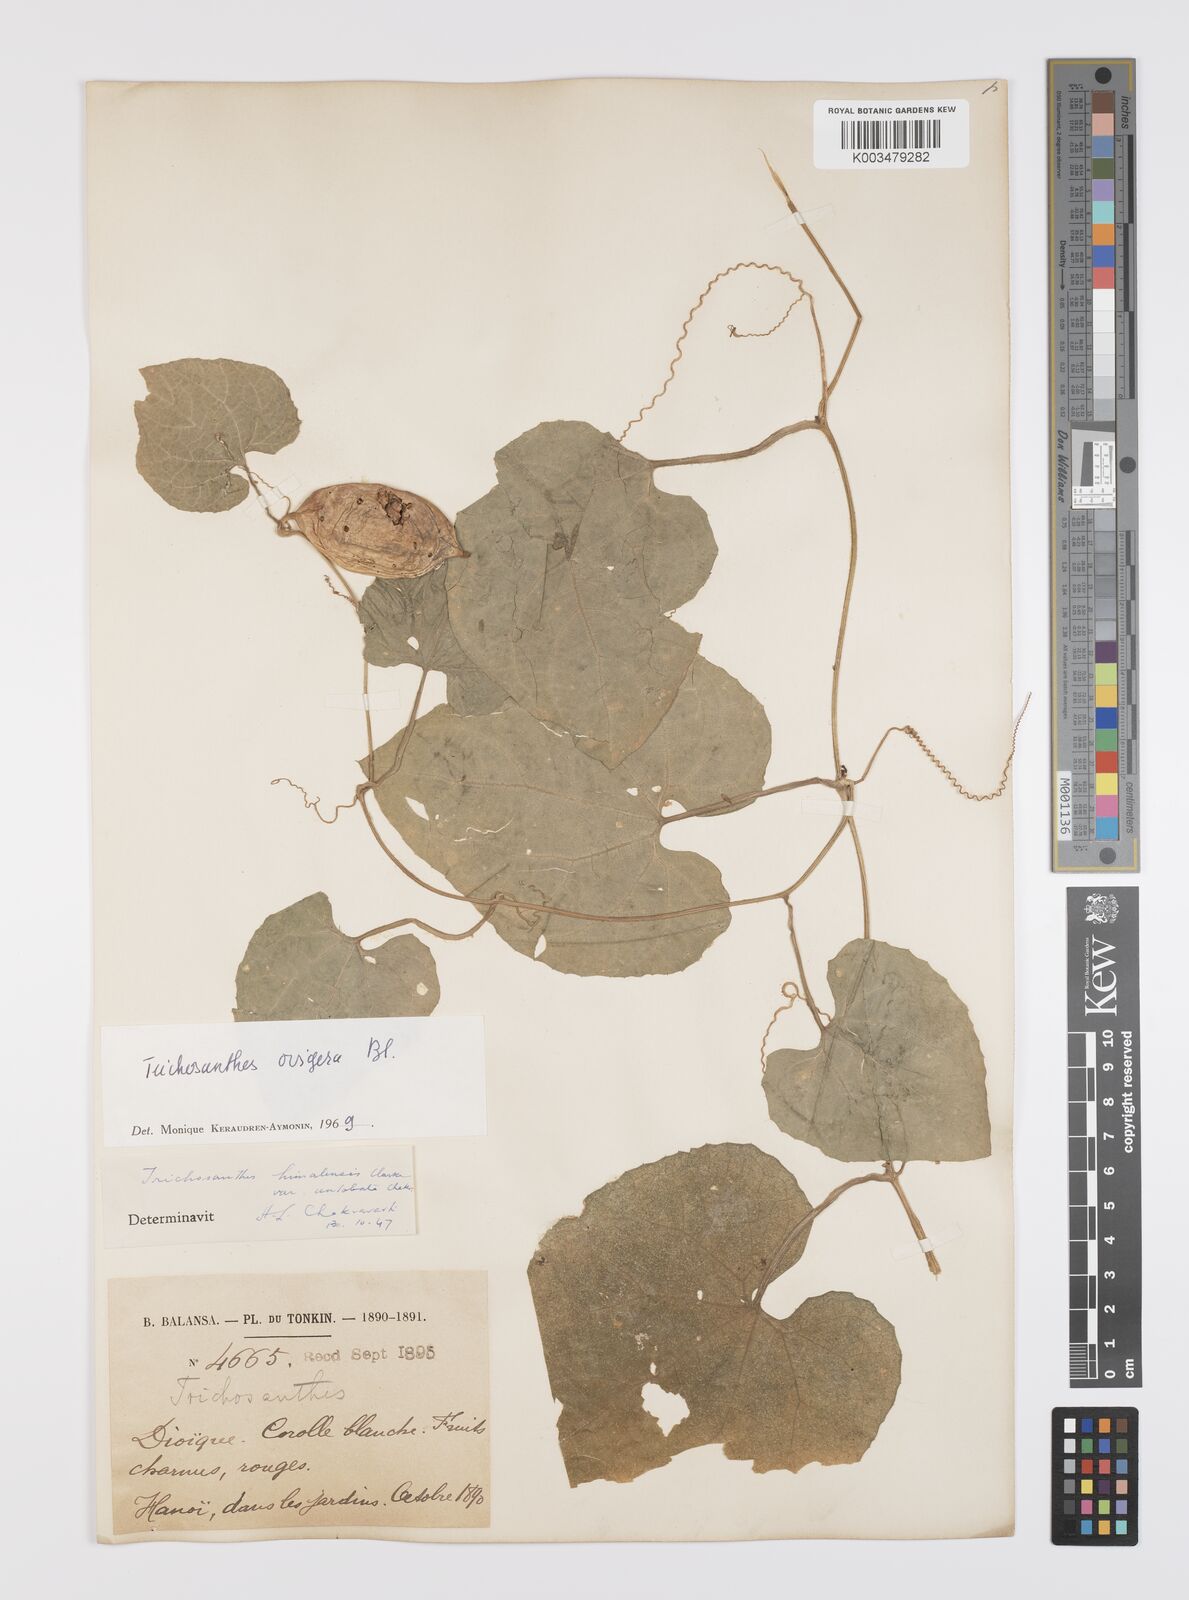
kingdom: Plantae
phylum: Tracheophyta
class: Magnoliopsida
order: Cucurbitales
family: Cucurbitaceae
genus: Trichosanthes
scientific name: Trichosanthes ovigera
